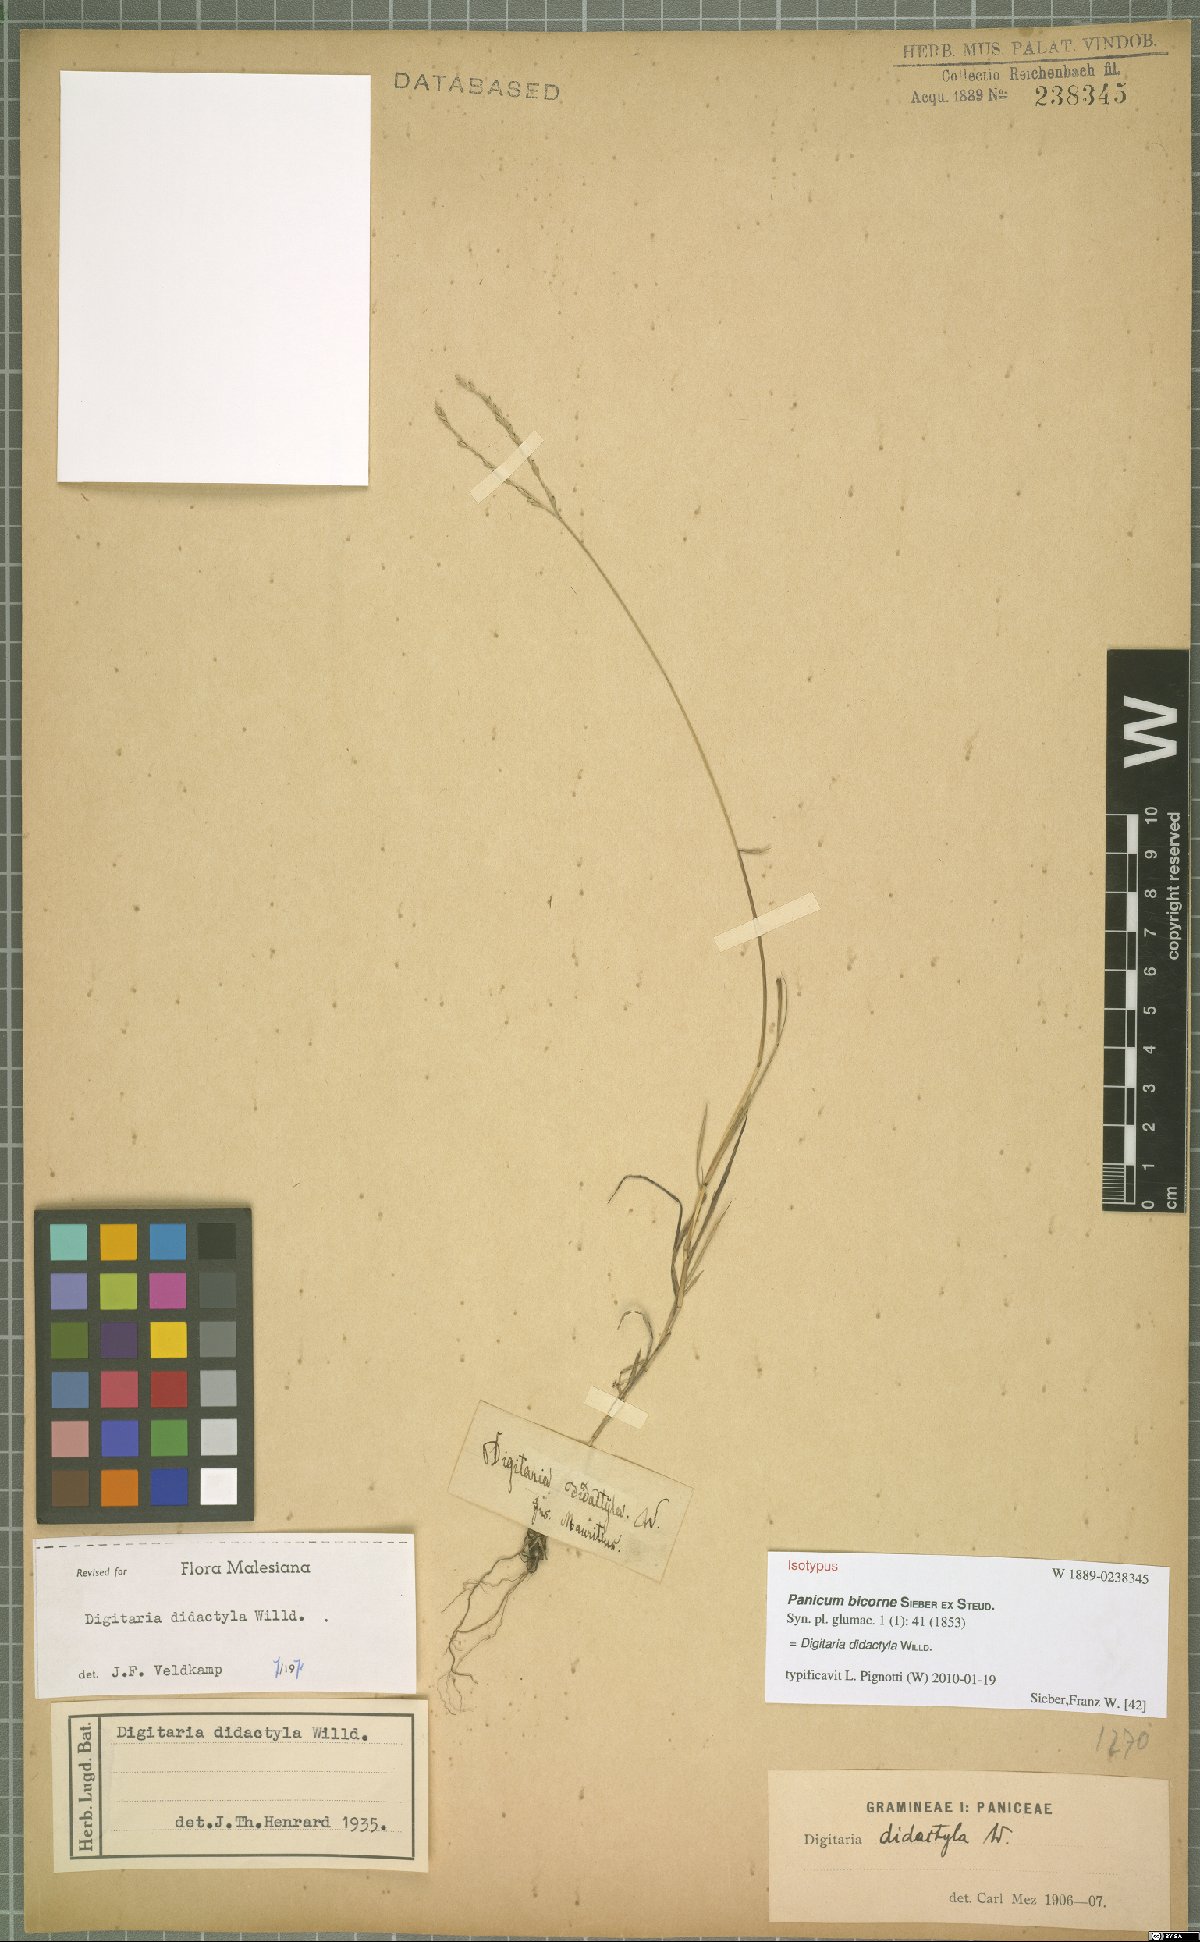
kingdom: Plantae
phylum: Tracheophyta
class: Liliopsida
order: Poales
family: Poaceae
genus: Digitaria
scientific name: Digitaria didactyla
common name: Blue couch
